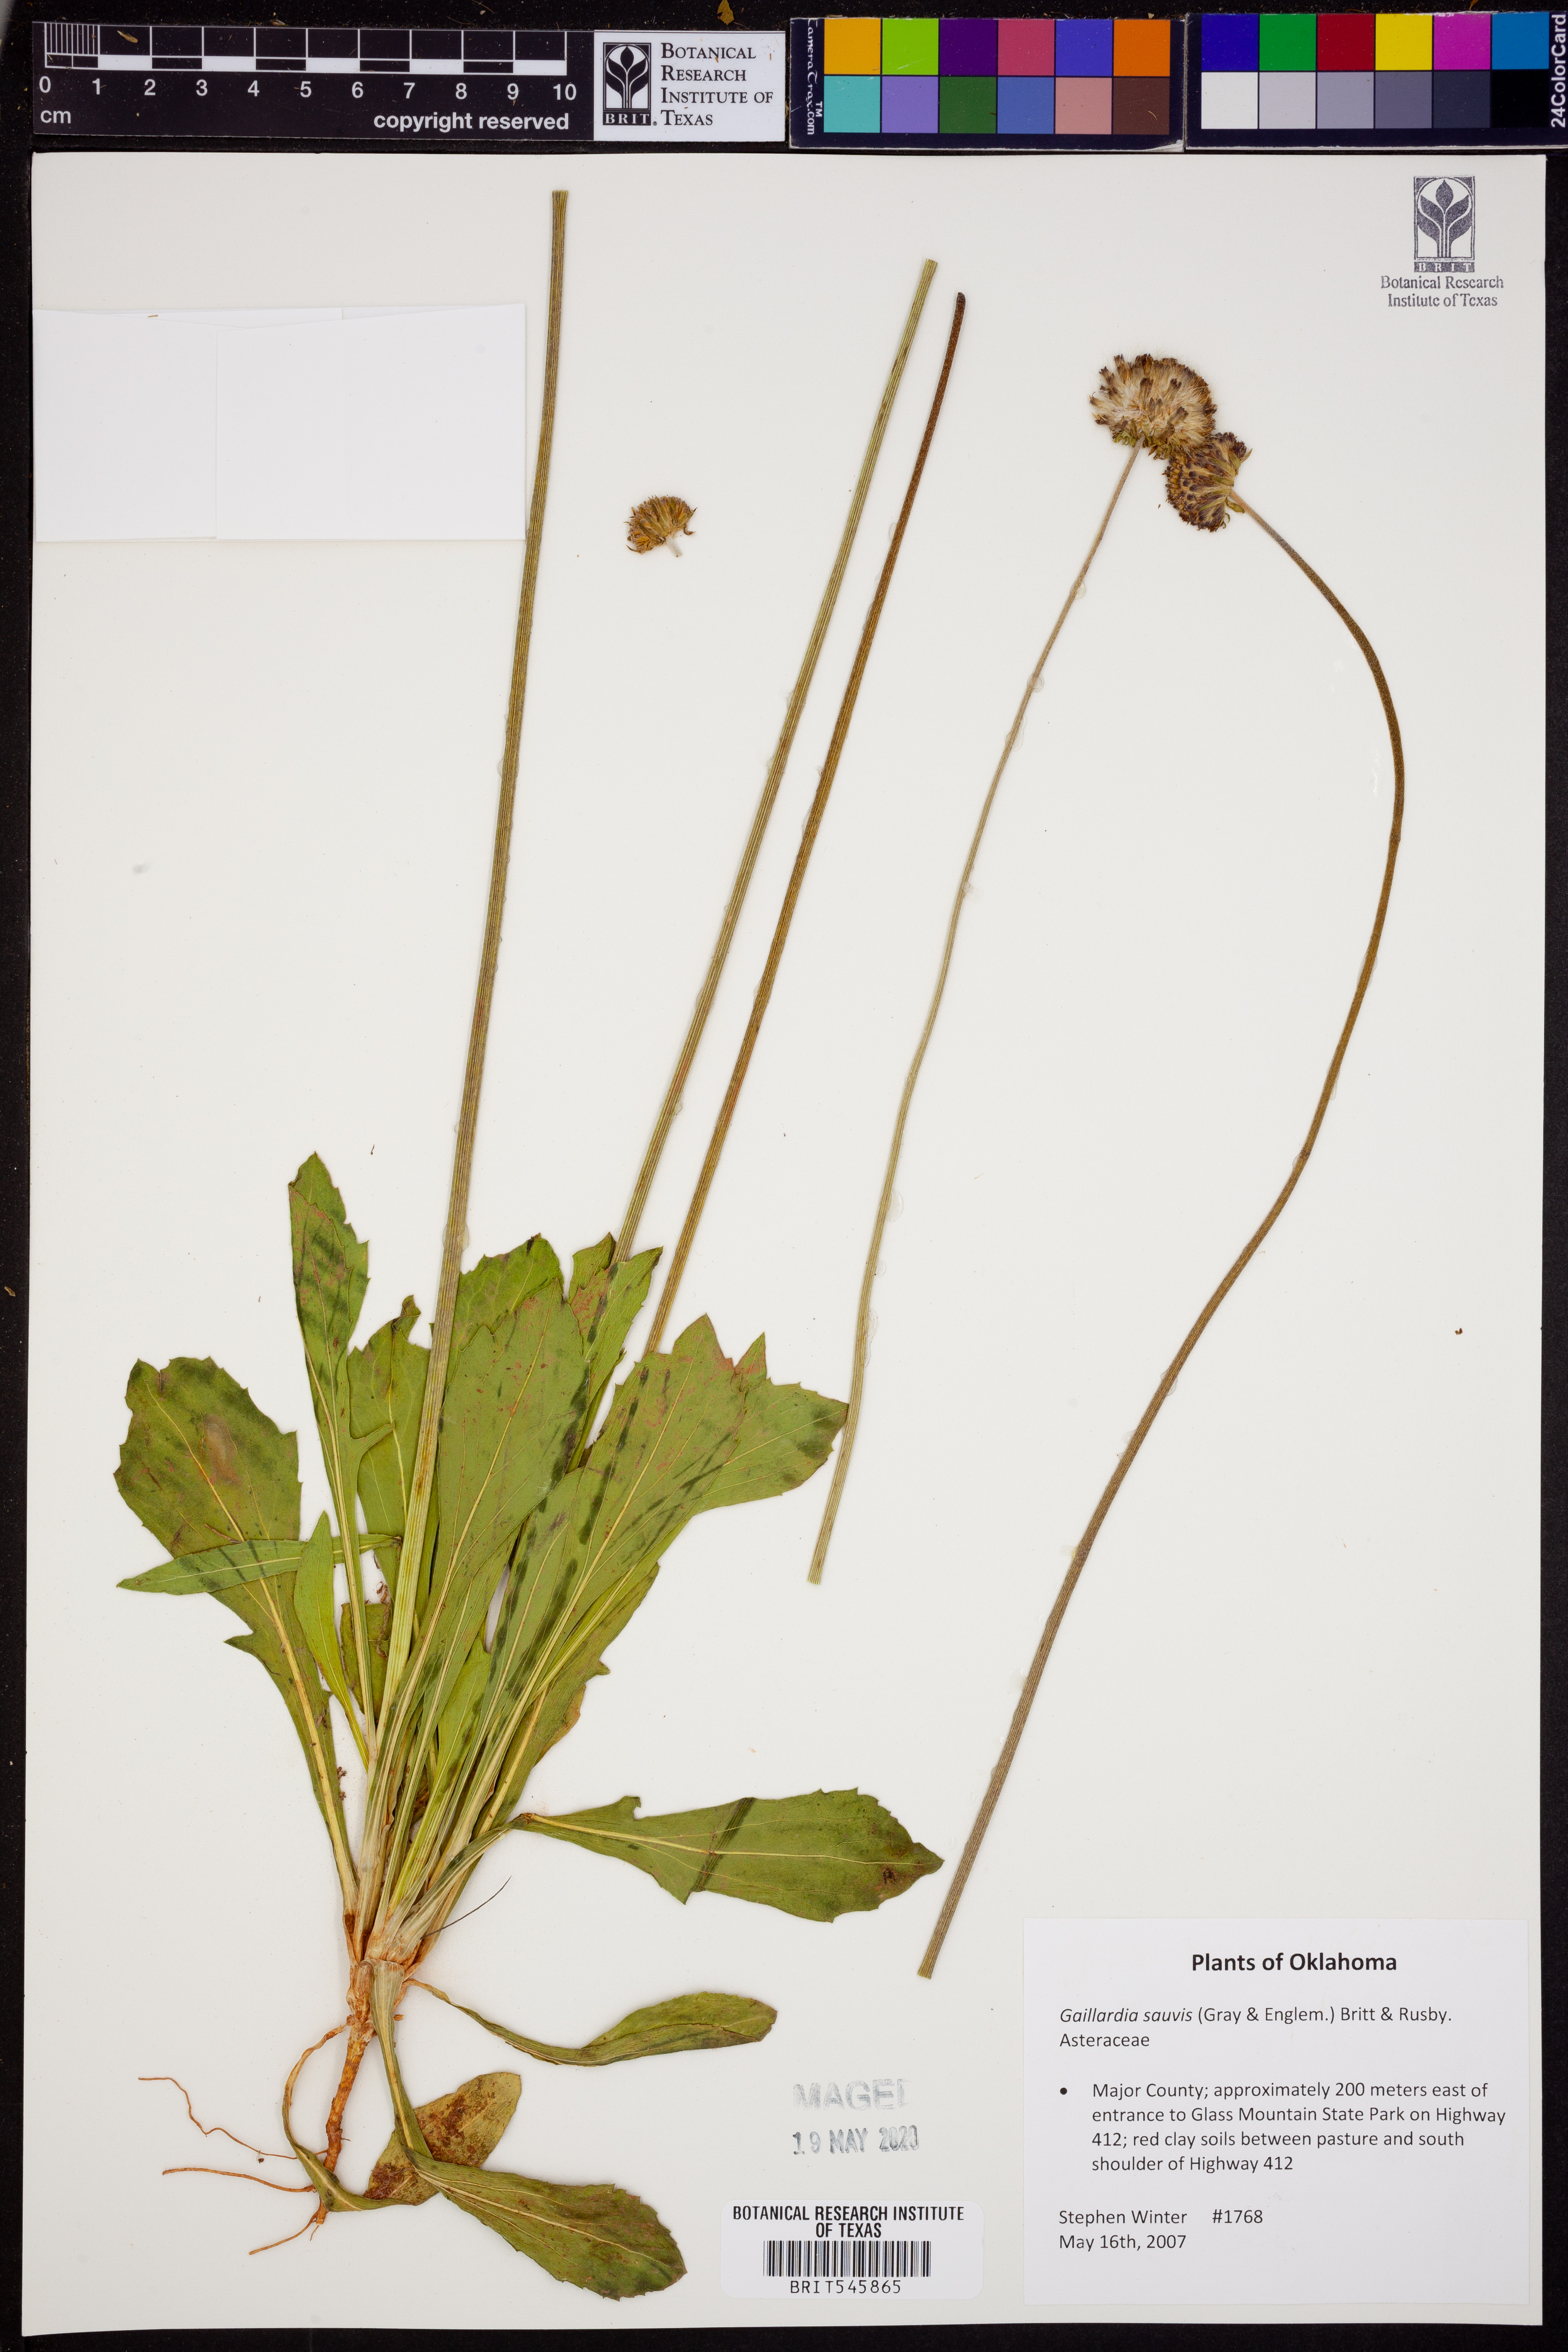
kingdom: Plantae
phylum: Tracheophyta
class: Magnoliopsida
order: Asterales
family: Asteraceae
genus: Gaillardia
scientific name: Gaillardia suavis
